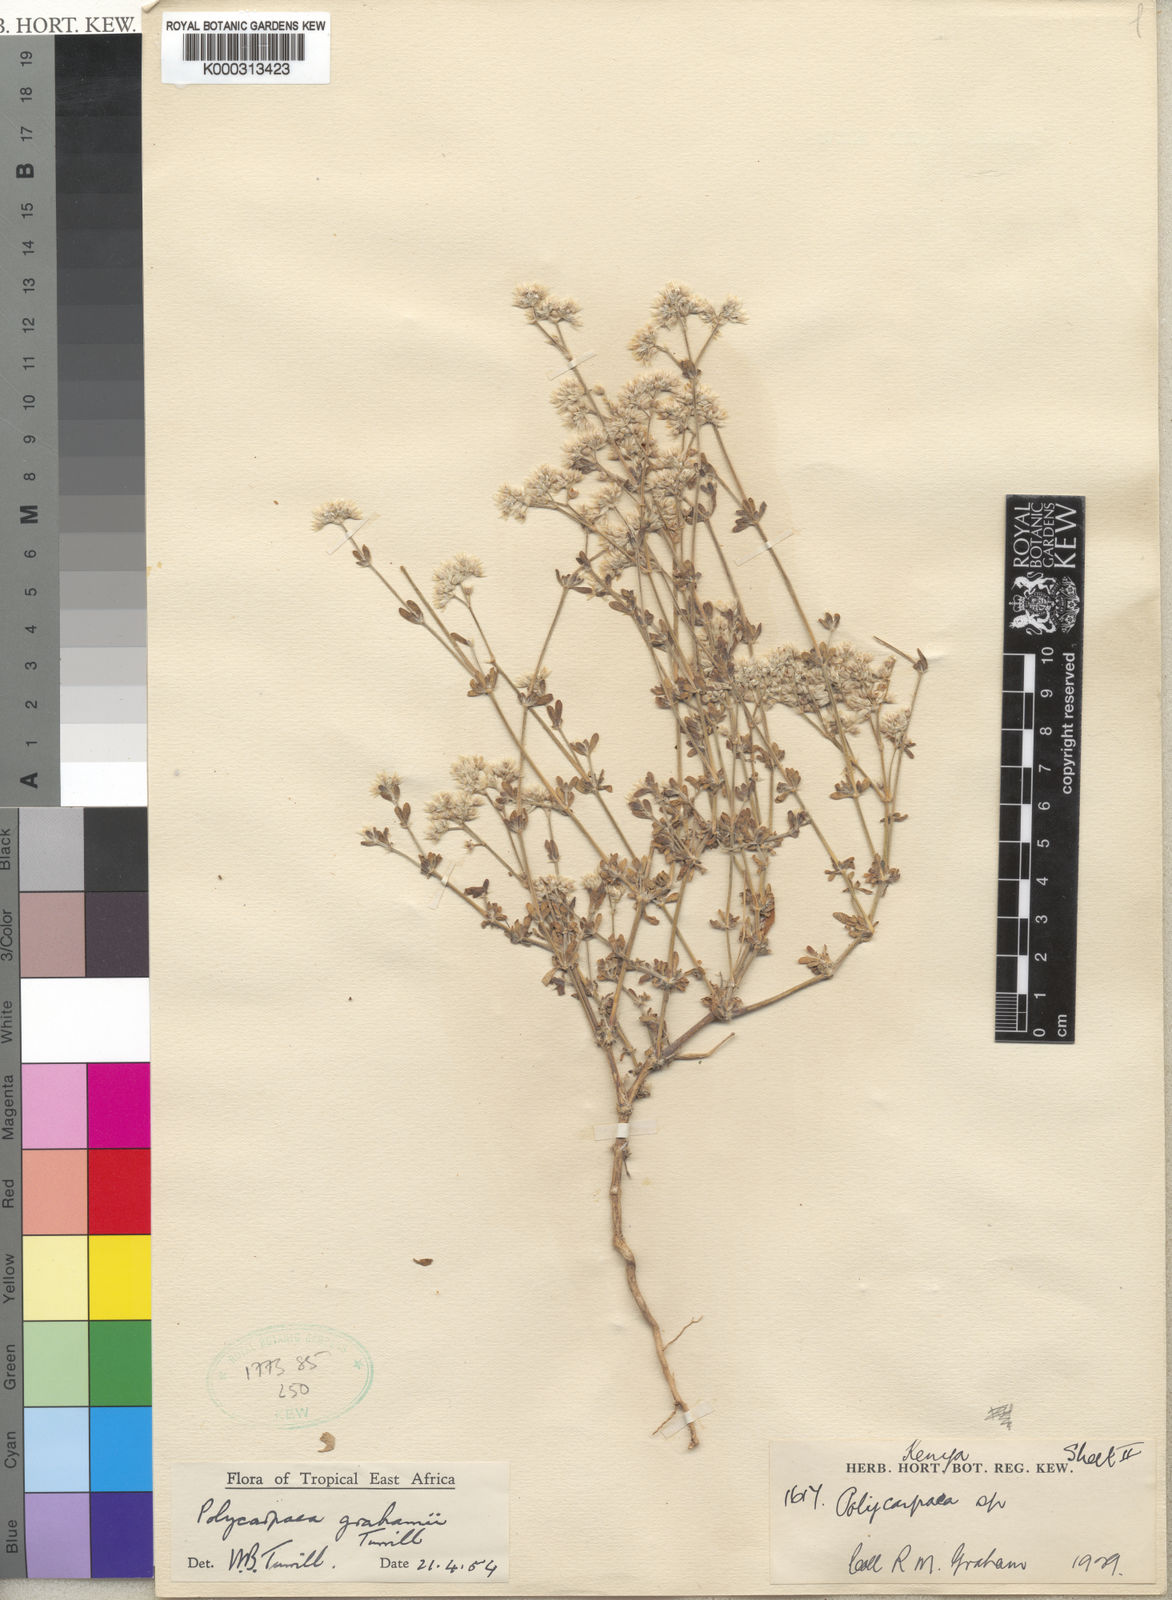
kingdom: Plantae
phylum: Tracheophyta
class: Magnoliopsida
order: Caryophyllales
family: Caryophyllaceae
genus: Polycarpaea
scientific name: Polycarpaea grahamii
